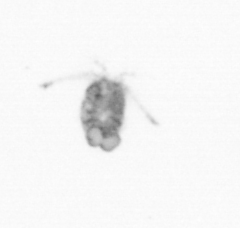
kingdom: Animalia
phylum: Arthropoda
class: Copepoda
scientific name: Copepoda
